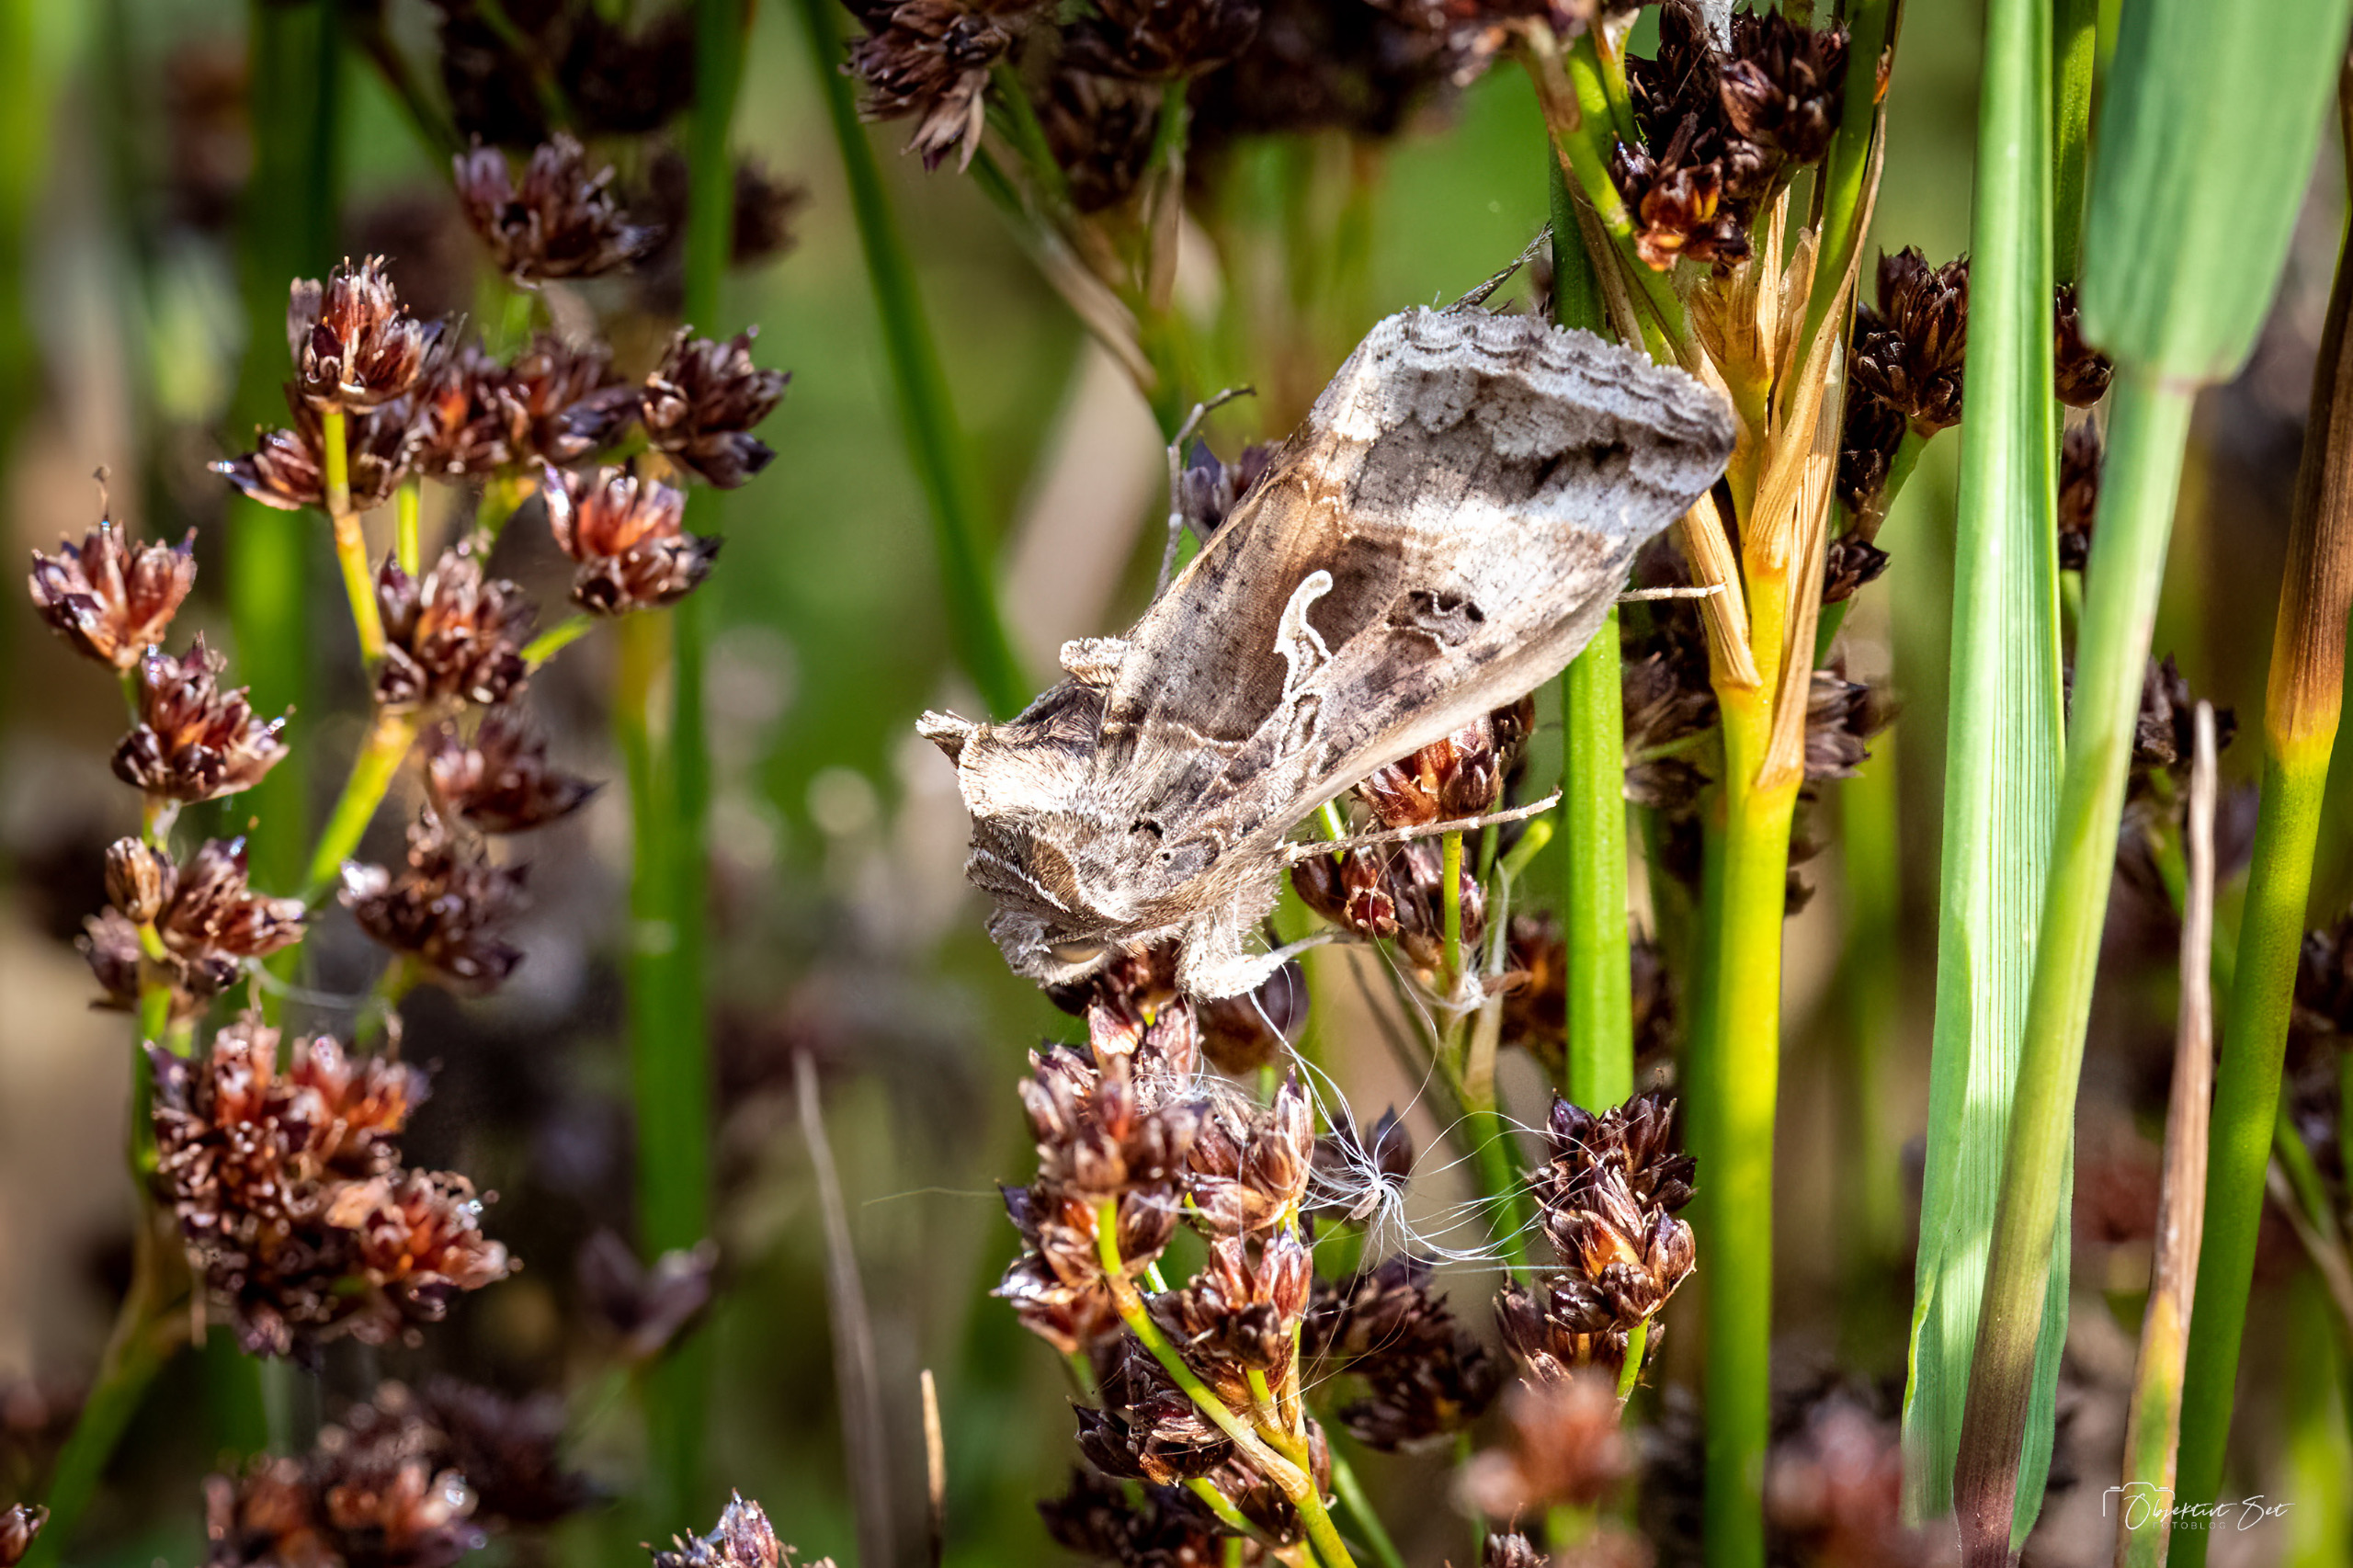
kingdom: Animalia
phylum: Arthropoda
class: Insecta
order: Lepidoptera
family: Noctuidae
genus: Autographa
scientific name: Autographa gamma
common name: Gammaugle
